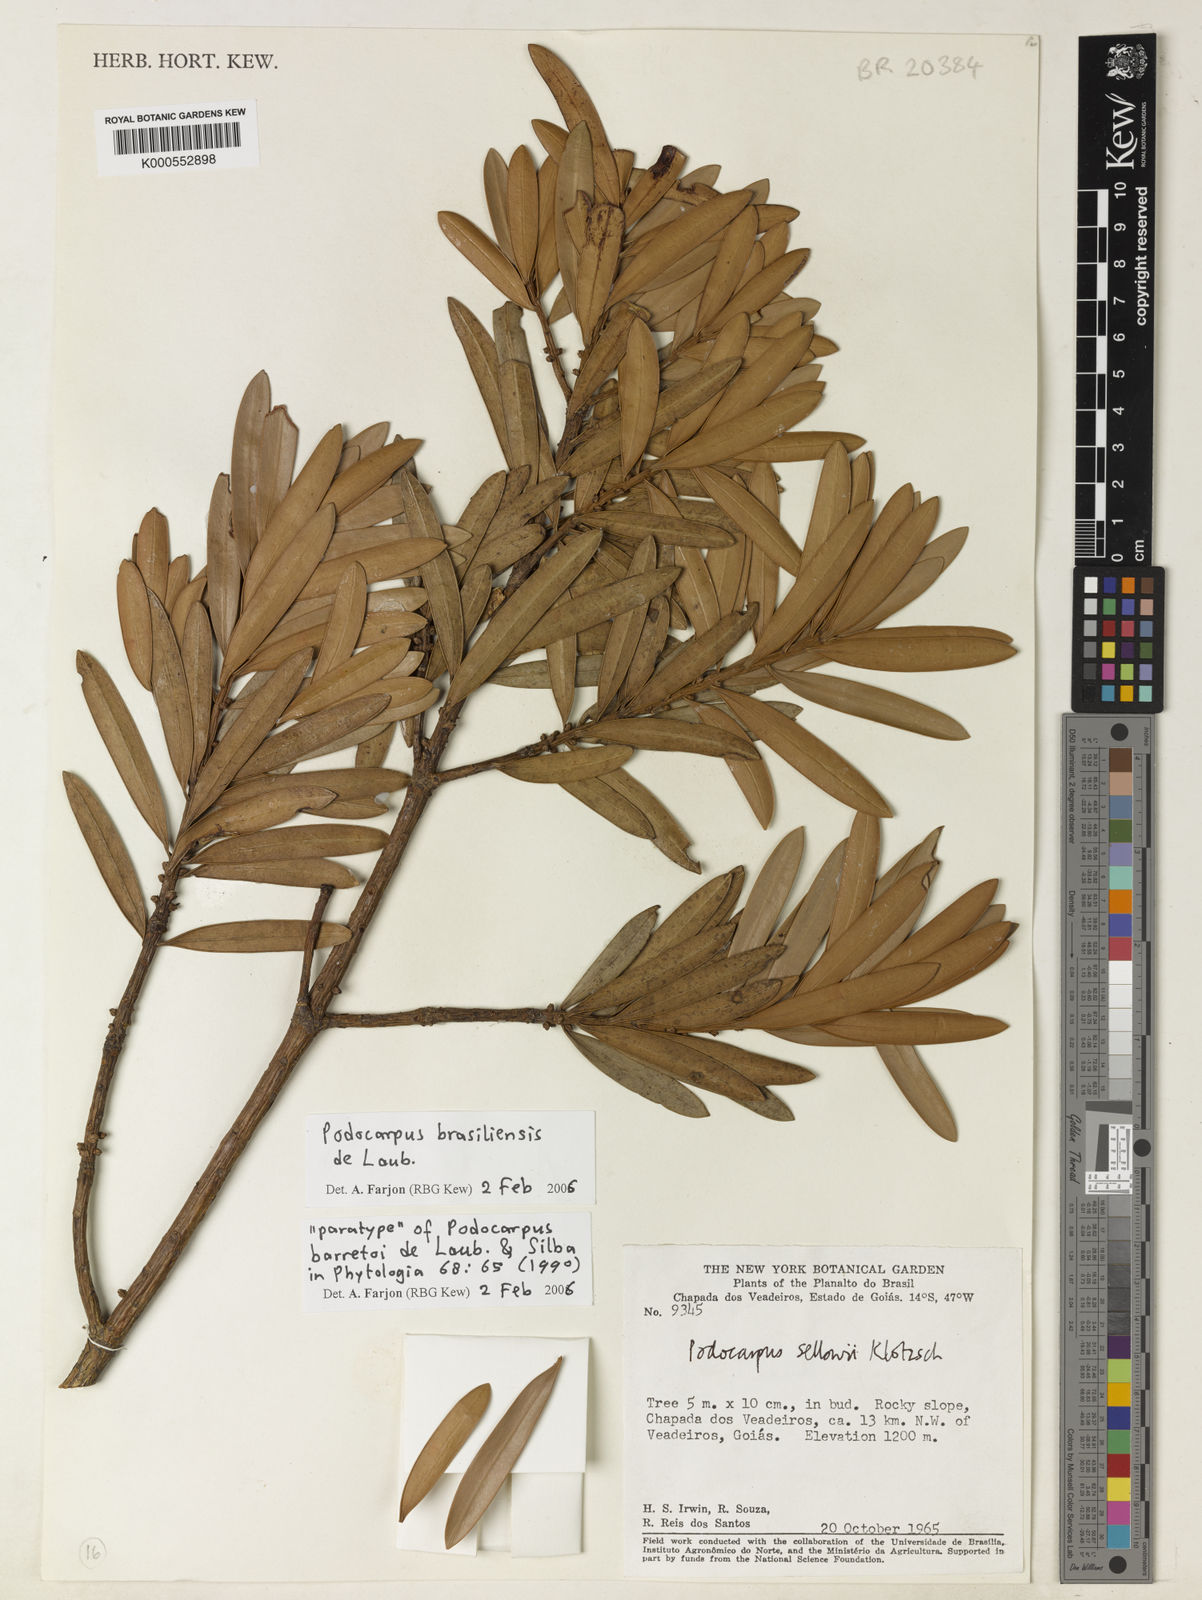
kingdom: Plantae
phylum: Tracheophyta
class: Pinopsida
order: Pinales
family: Podocarpaceae
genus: Podocarpus
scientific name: Podocarpus brasiliensis
